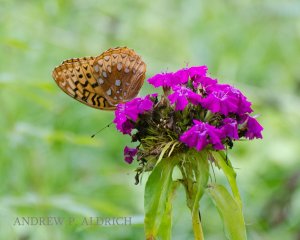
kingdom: Animalia
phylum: Arthropoda
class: Insecta
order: Lepidoptera
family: Nymphalidae
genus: Speyeria
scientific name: Speyeria cybele
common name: Great Spangled Fritillary
